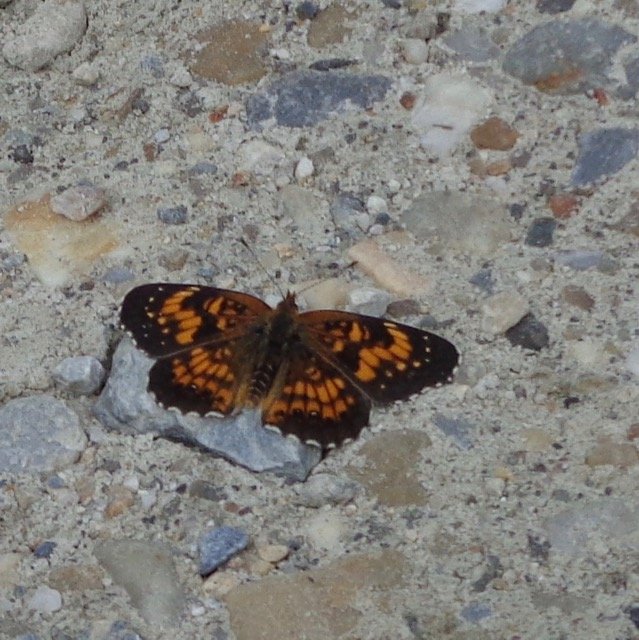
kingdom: Animalia
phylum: Arthropoda
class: Insecta
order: Lepidoptera
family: Nymphalidae
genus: Chlosyne
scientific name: Chlosyne harrisii
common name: Harris's Checkerspot
